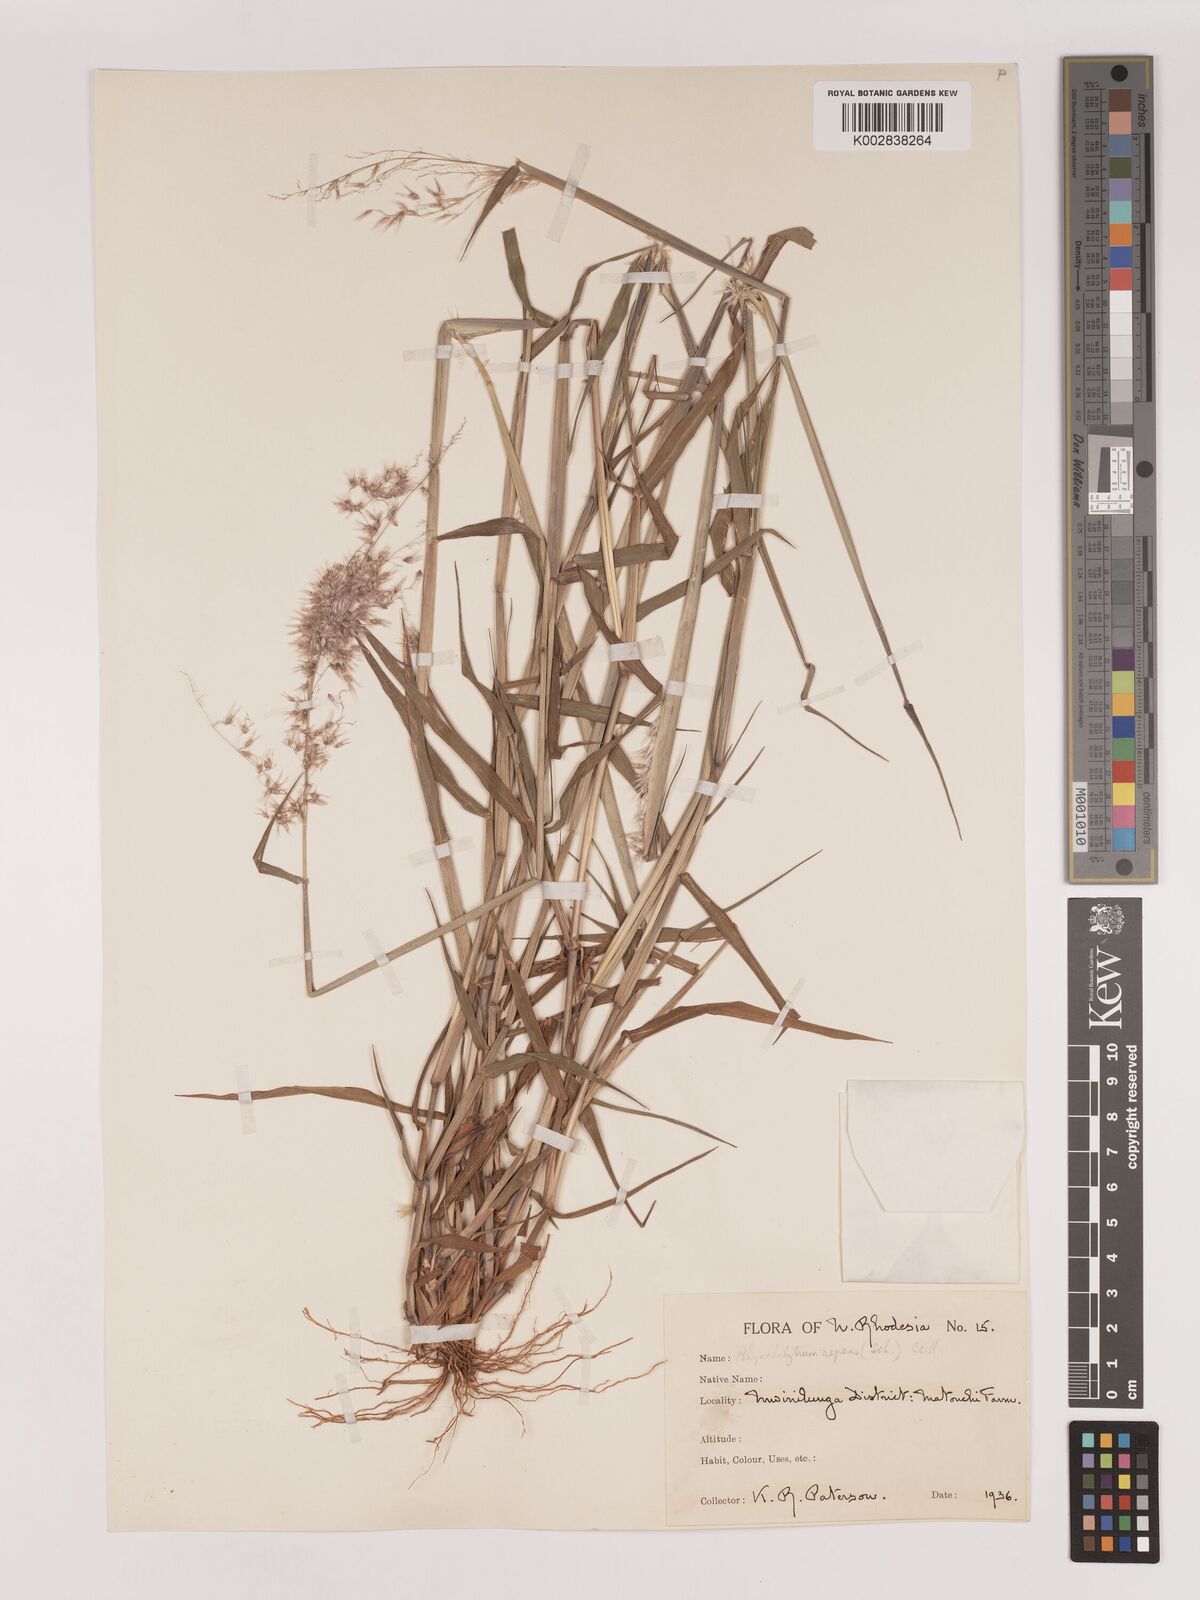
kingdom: Plantae
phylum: Tracheophyta
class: Liliopsida
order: Poales
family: Poaceae
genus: Melinis
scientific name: Melinis repens
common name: Rose natal grass
